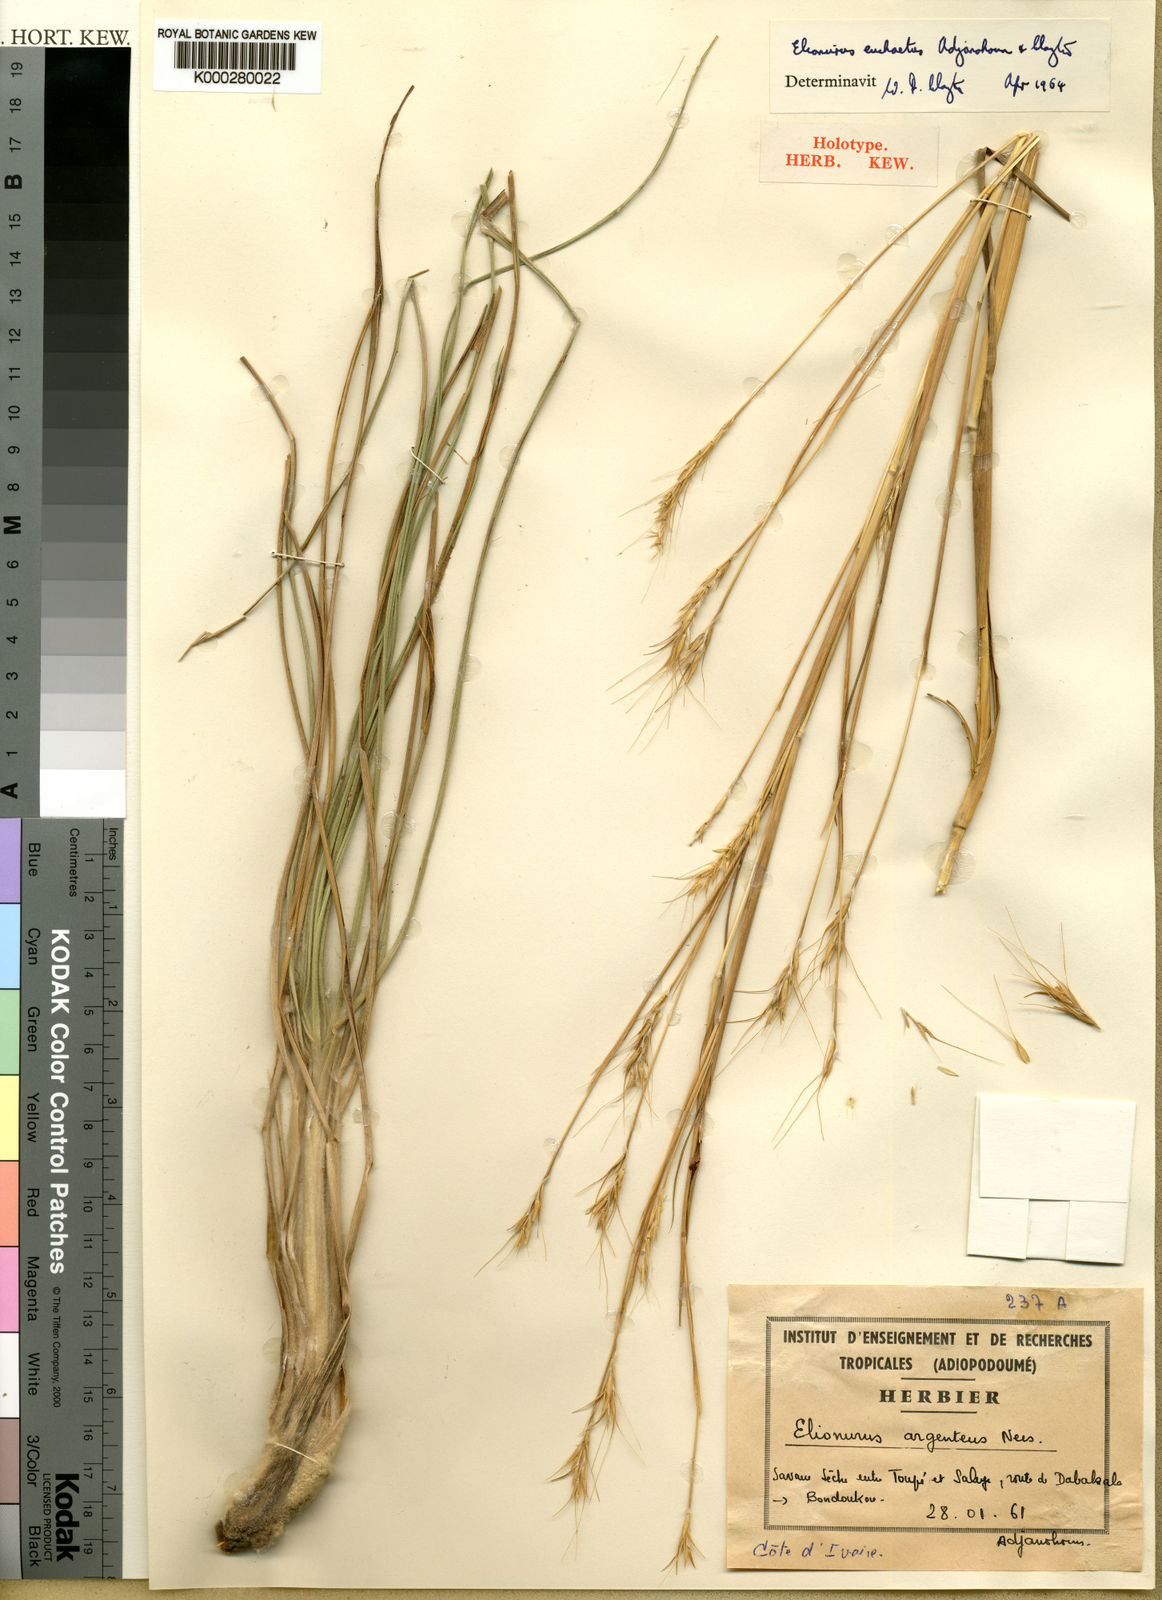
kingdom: Plantae
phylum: Tracheophyta
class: Liliopsida
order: Poales
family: Poaceae
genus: Elionurus
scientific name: Elionurus euchaetus
